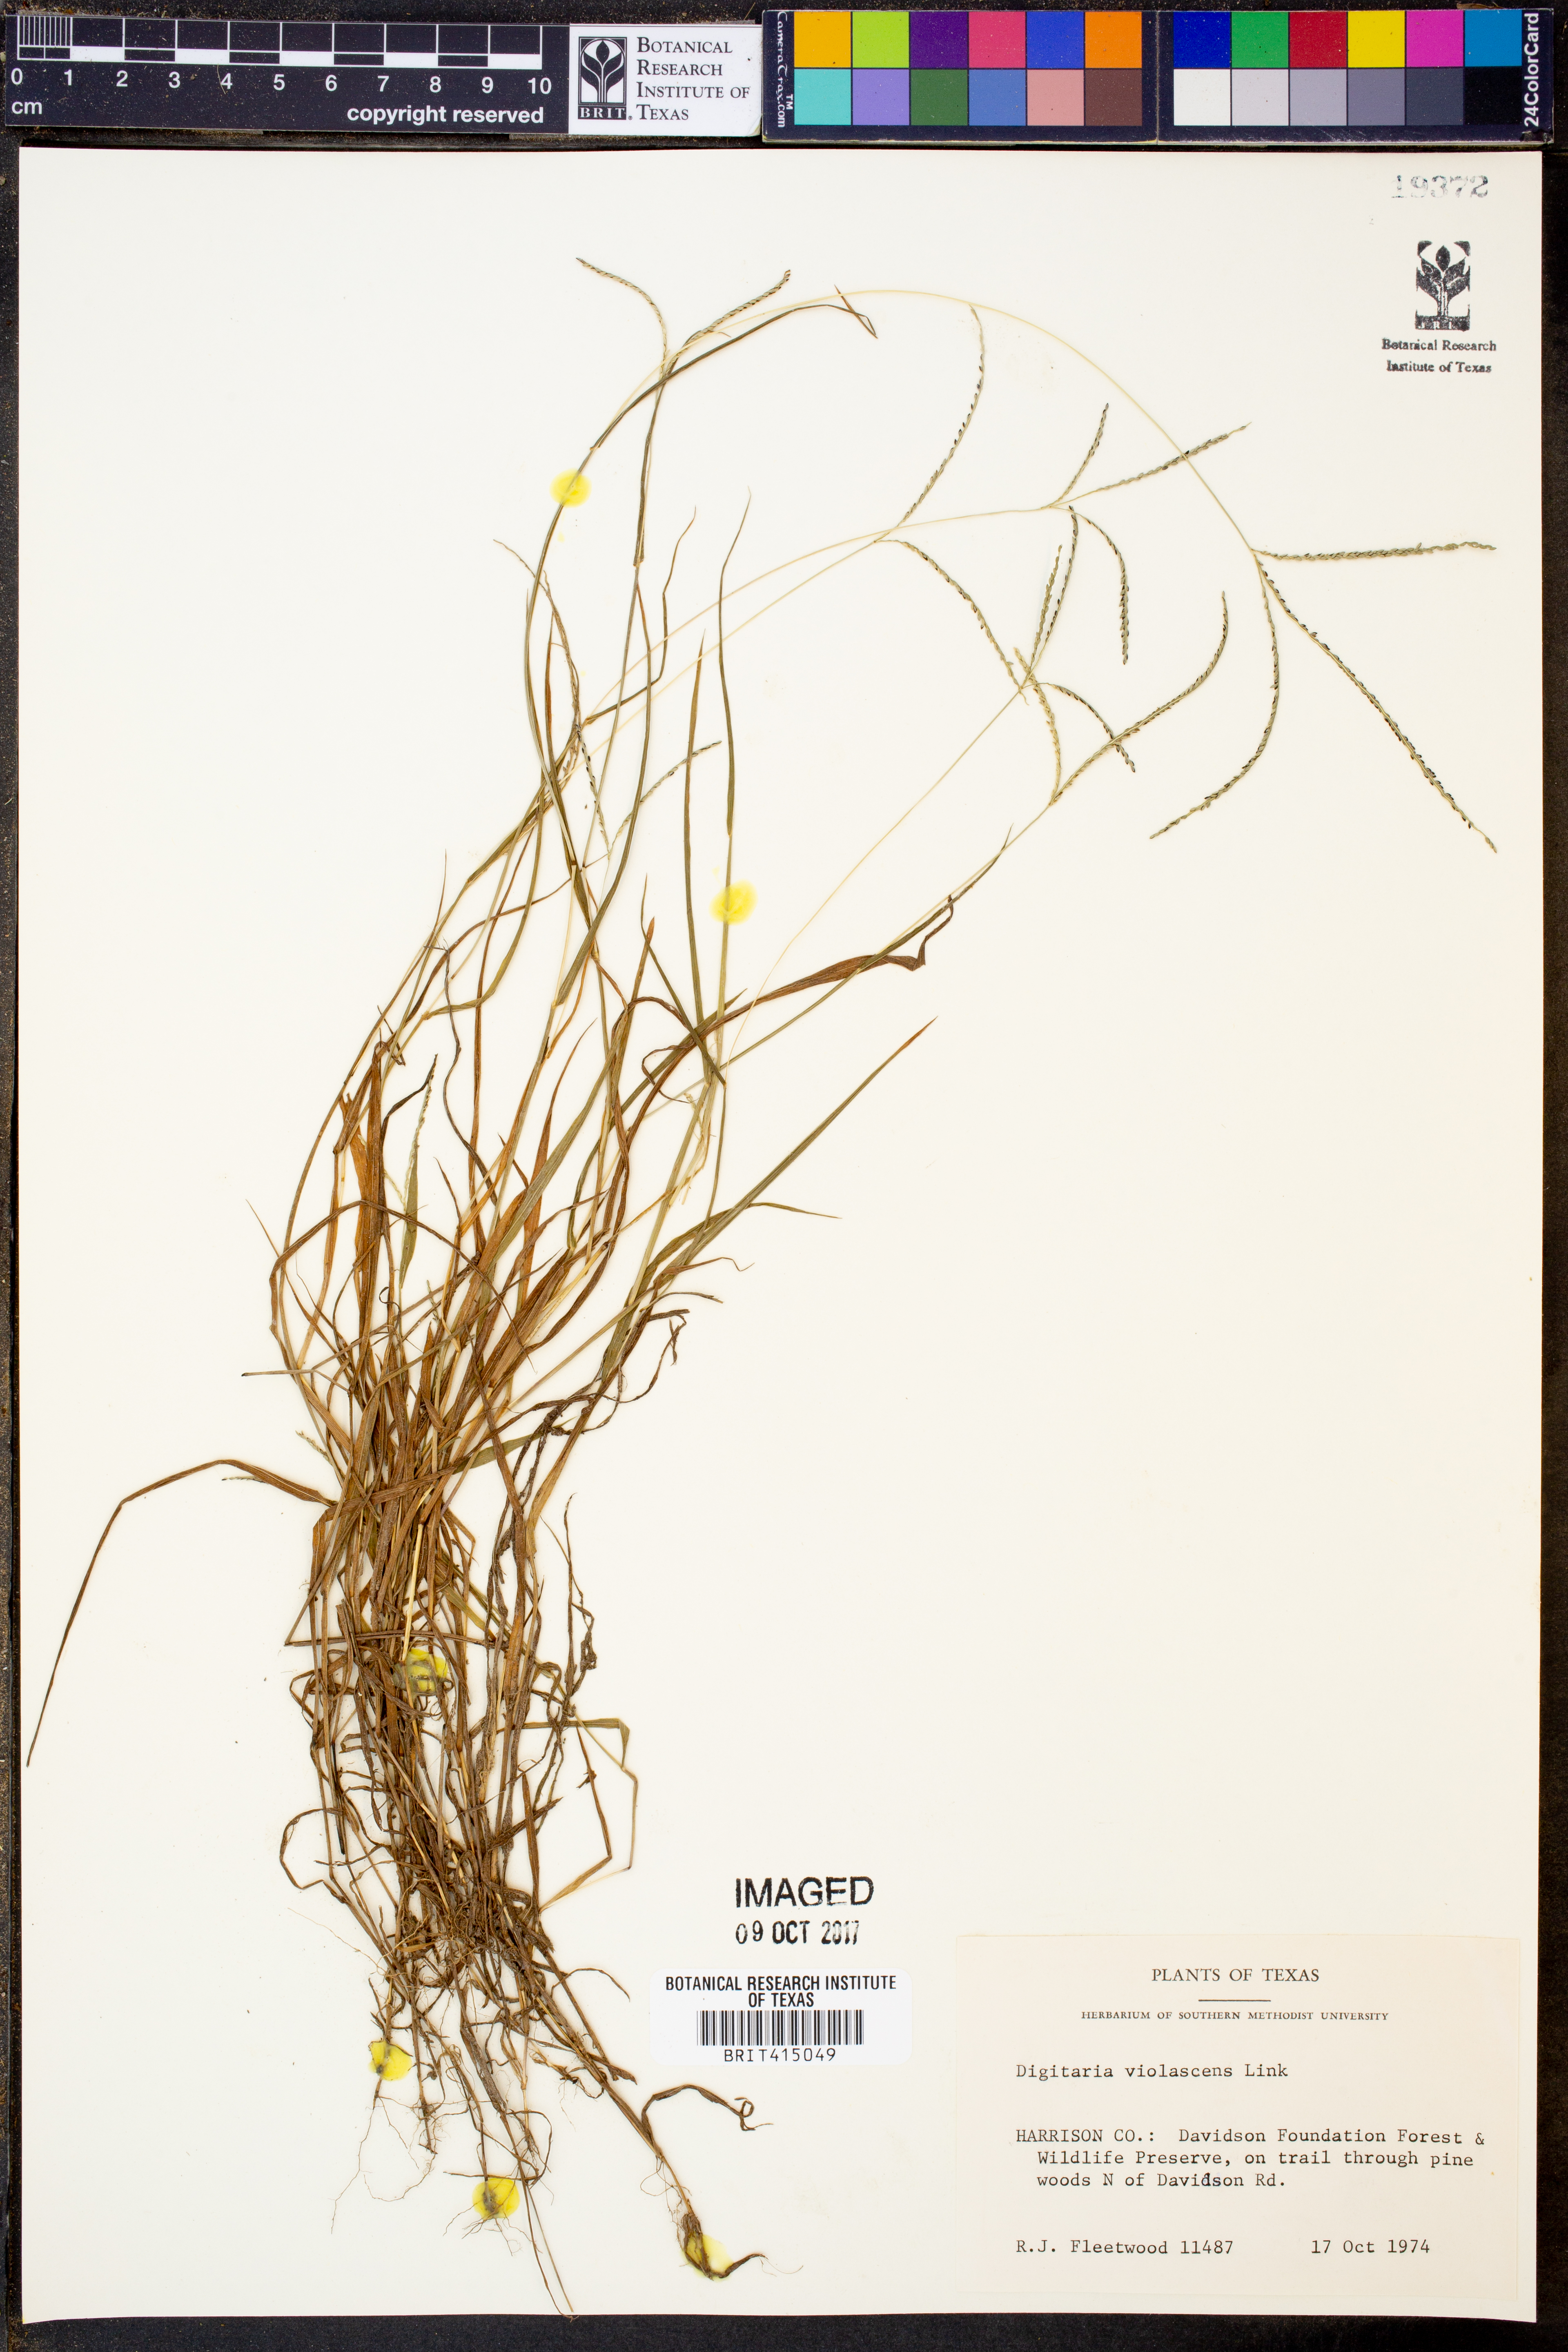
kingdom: Plantae
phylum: Tracheophyta
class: Liliopsida
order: Poales
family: Poaceae
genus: Digitaria
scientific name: Digitaria violascens
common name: Violet crabgrass
